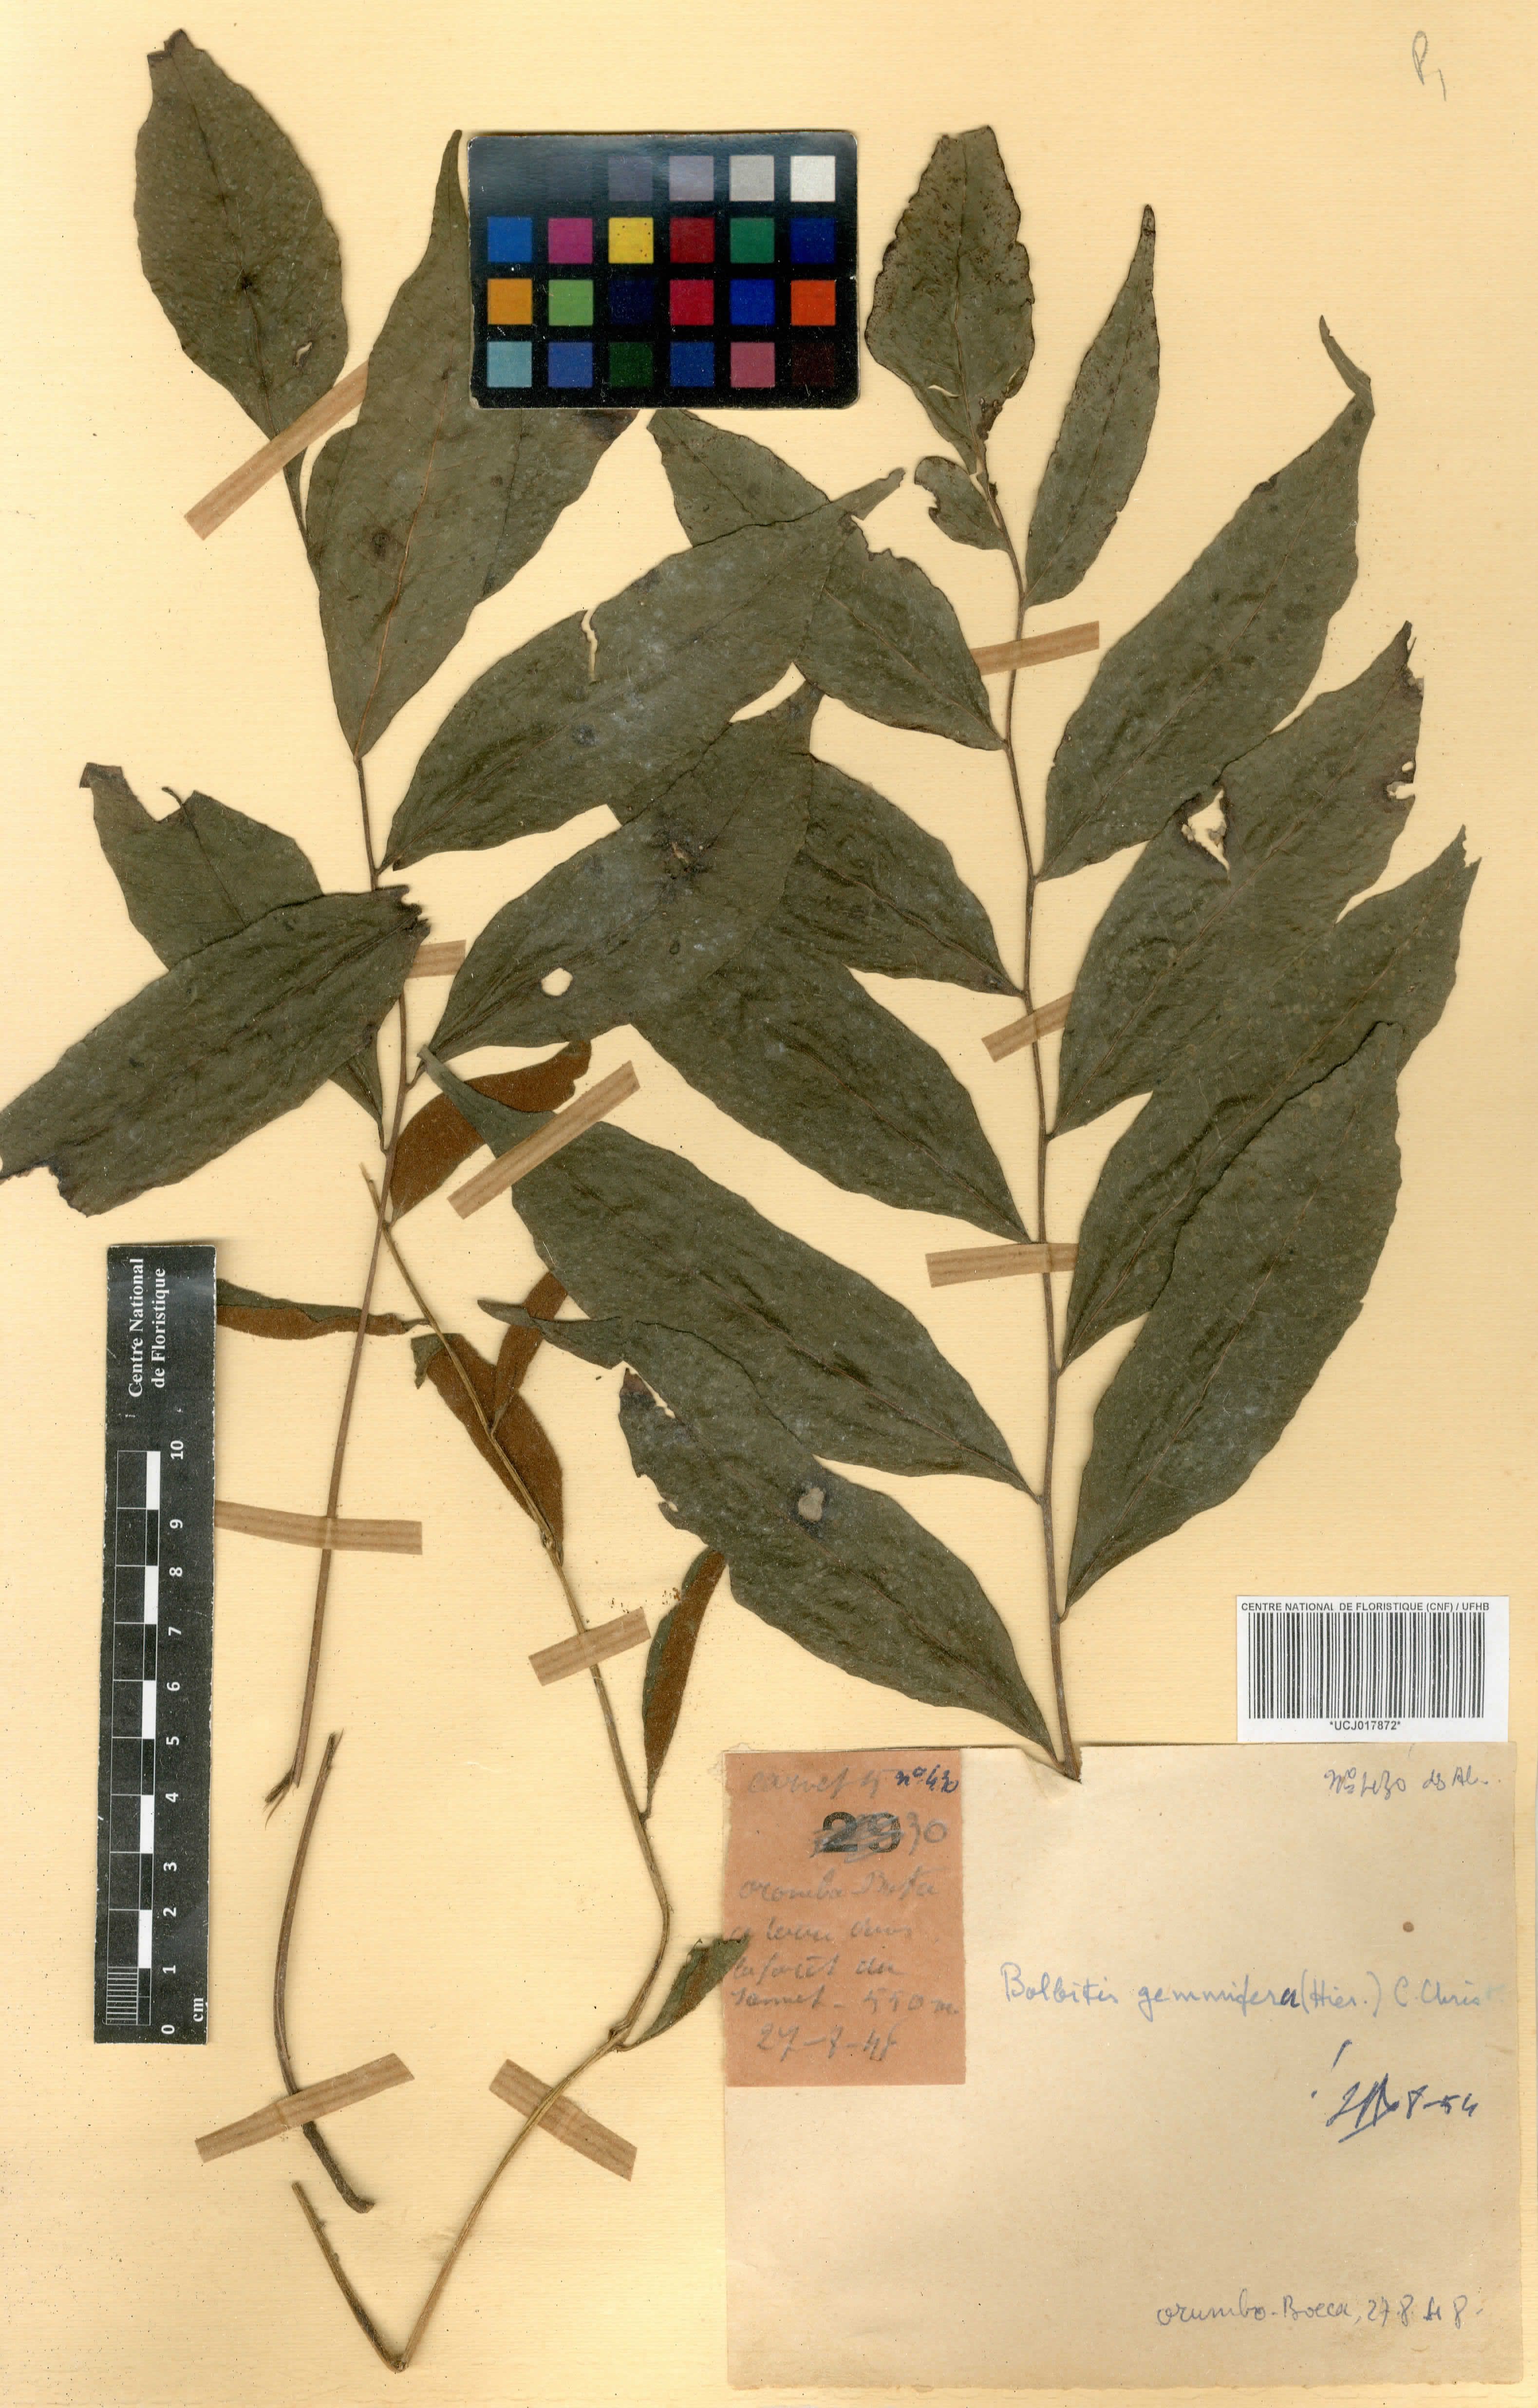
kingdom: Plantae
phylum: Tracheophyta
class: Polypodiopsida
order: Polypodiales
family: Dryopteridaceae
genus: Bolbitis
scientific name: Bolbitis gemmifer
